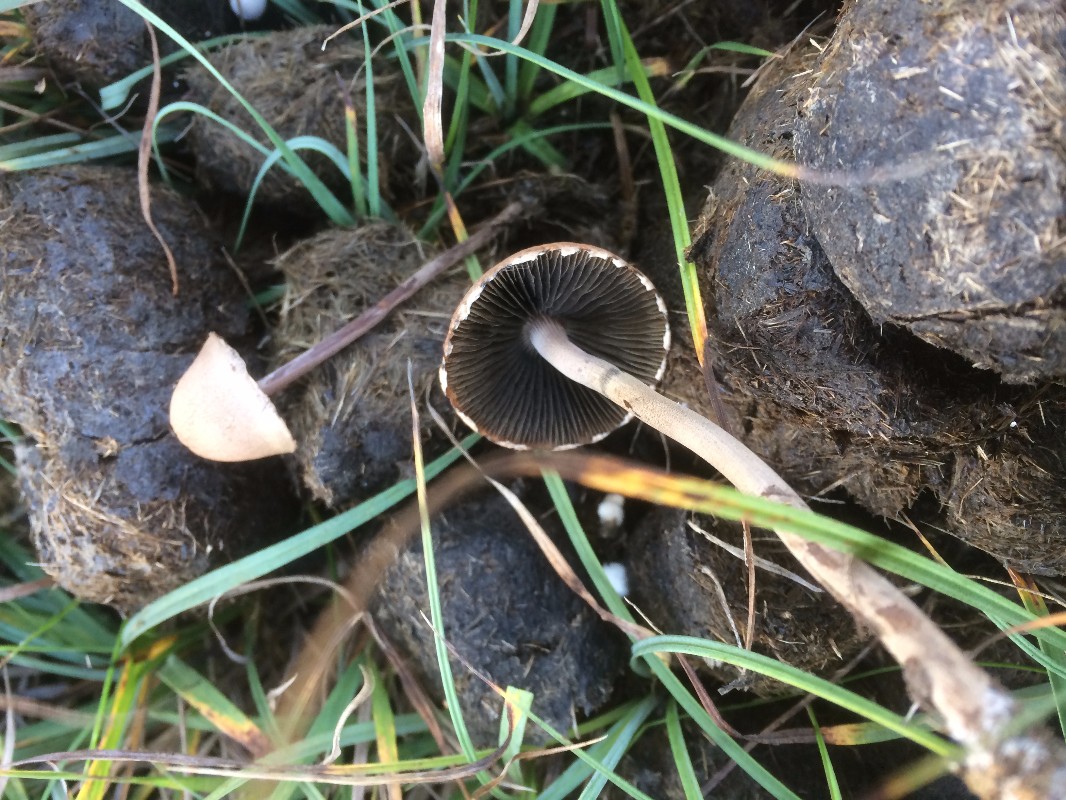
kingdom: Fungi
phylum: Basidiomycota
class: Agaricomycetes
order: Agaricales
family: Bolbitiaceae
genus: Panaeolus
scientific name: Panaeolus papilionaceus
